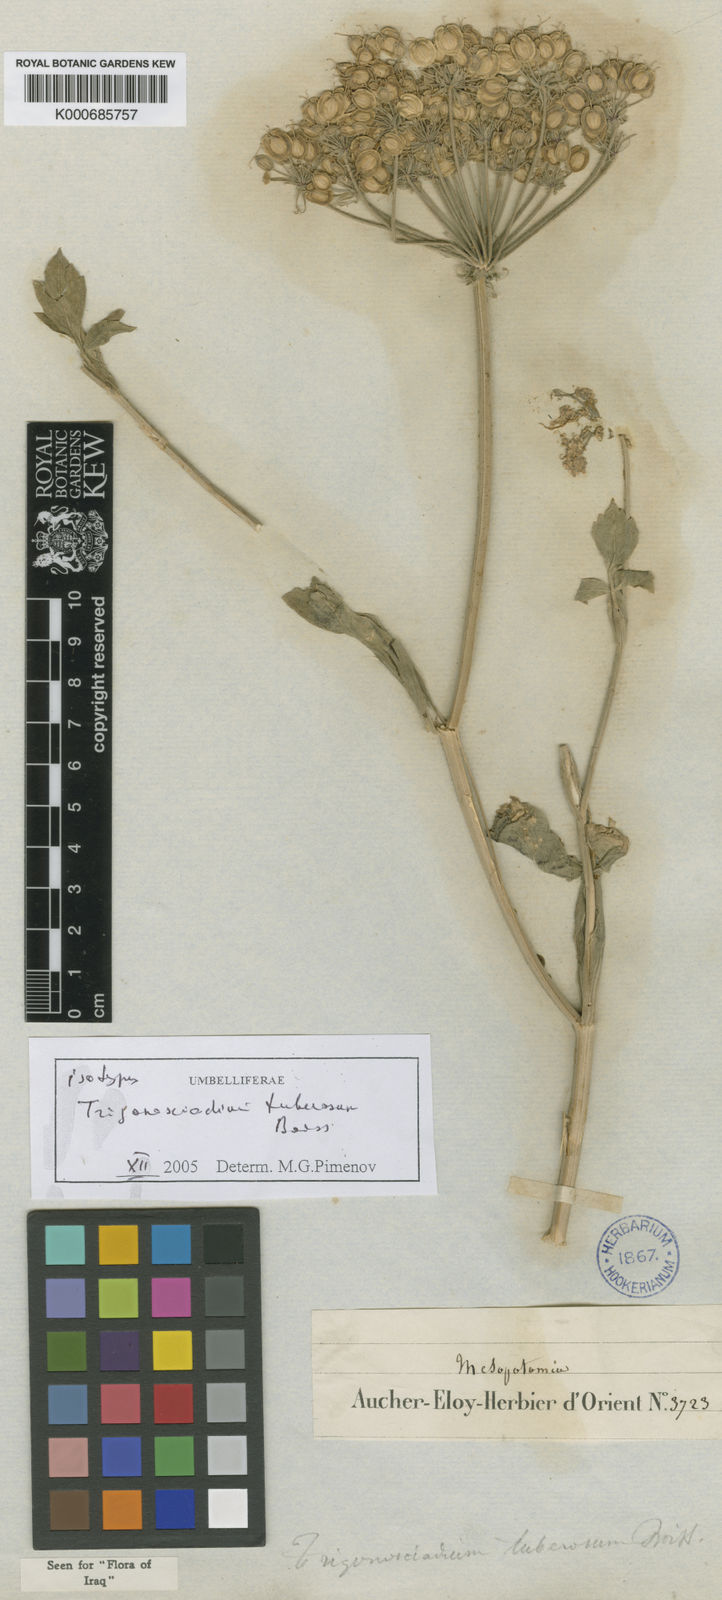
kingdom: Plantae
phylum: Tracheophyta
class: Magnoliopsida
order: Apiales
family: Apiaceae
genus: Trigonosciadium
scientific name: Trigonosciadium tuberosum
